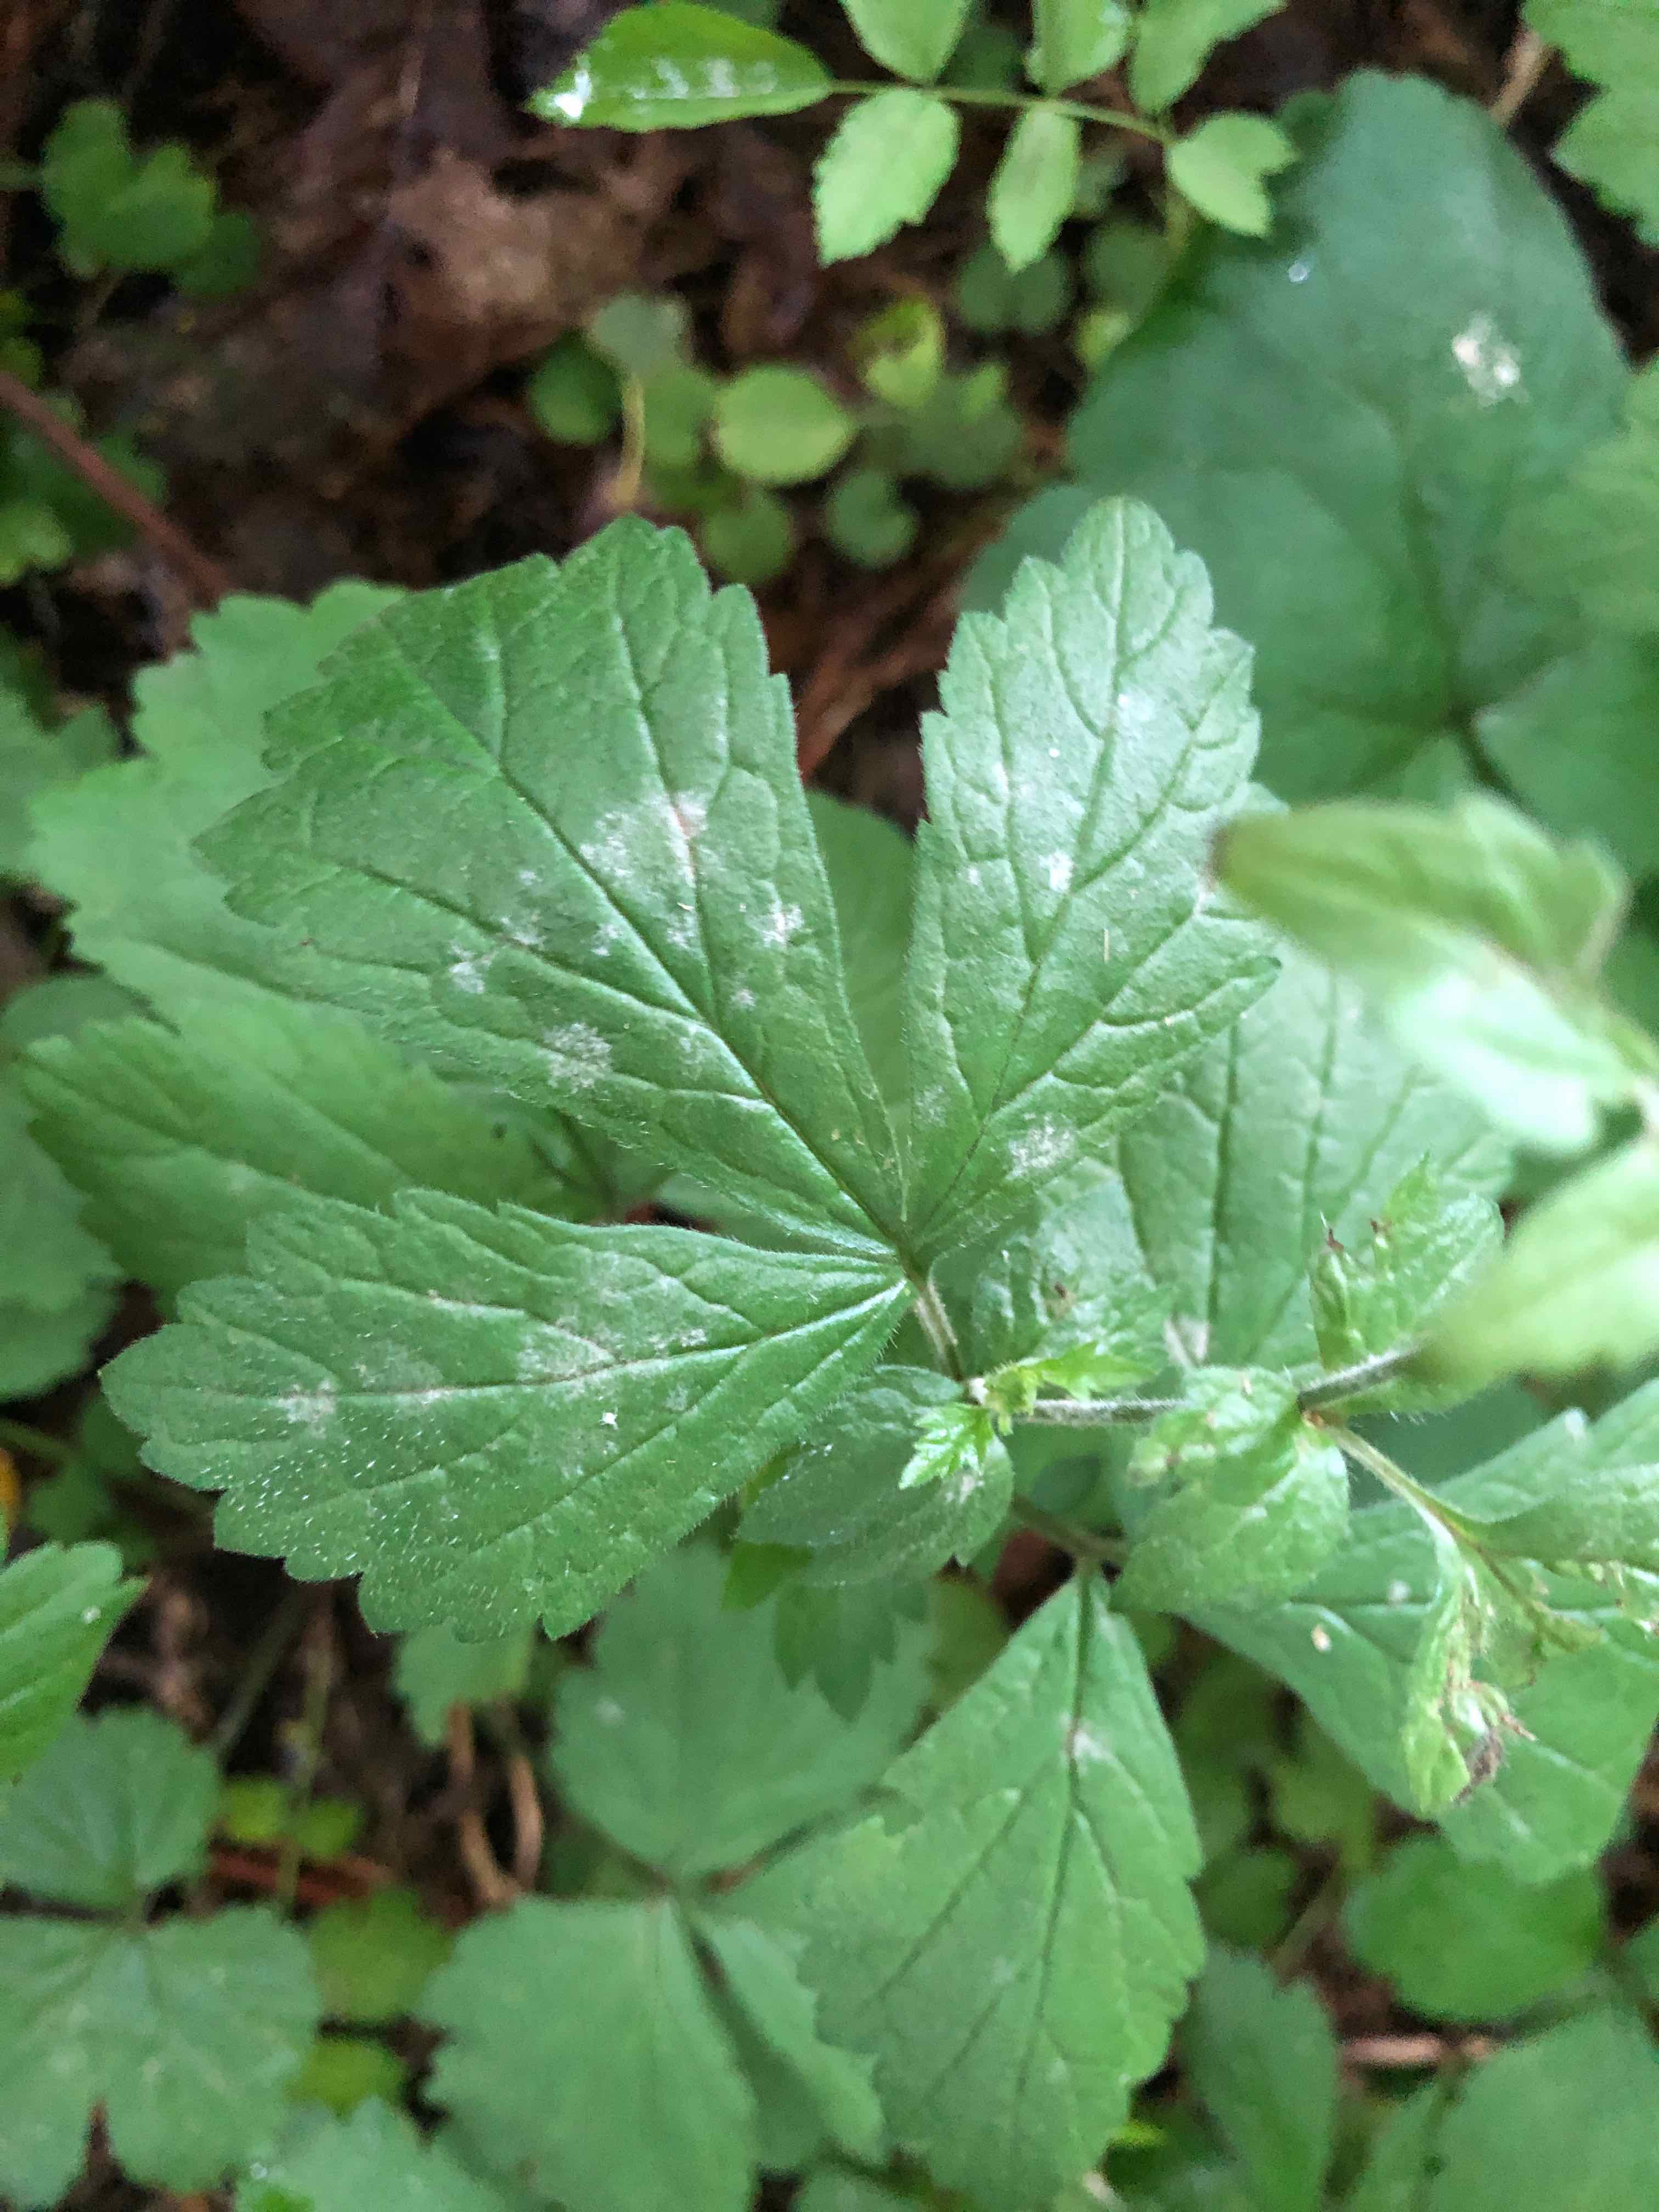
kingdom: Fungi
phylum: Ascomycota
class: Leotiomycetes
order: Helotiales
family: Erysiphaceae
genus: Podosphaera
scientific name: Podosphaera aphanis
